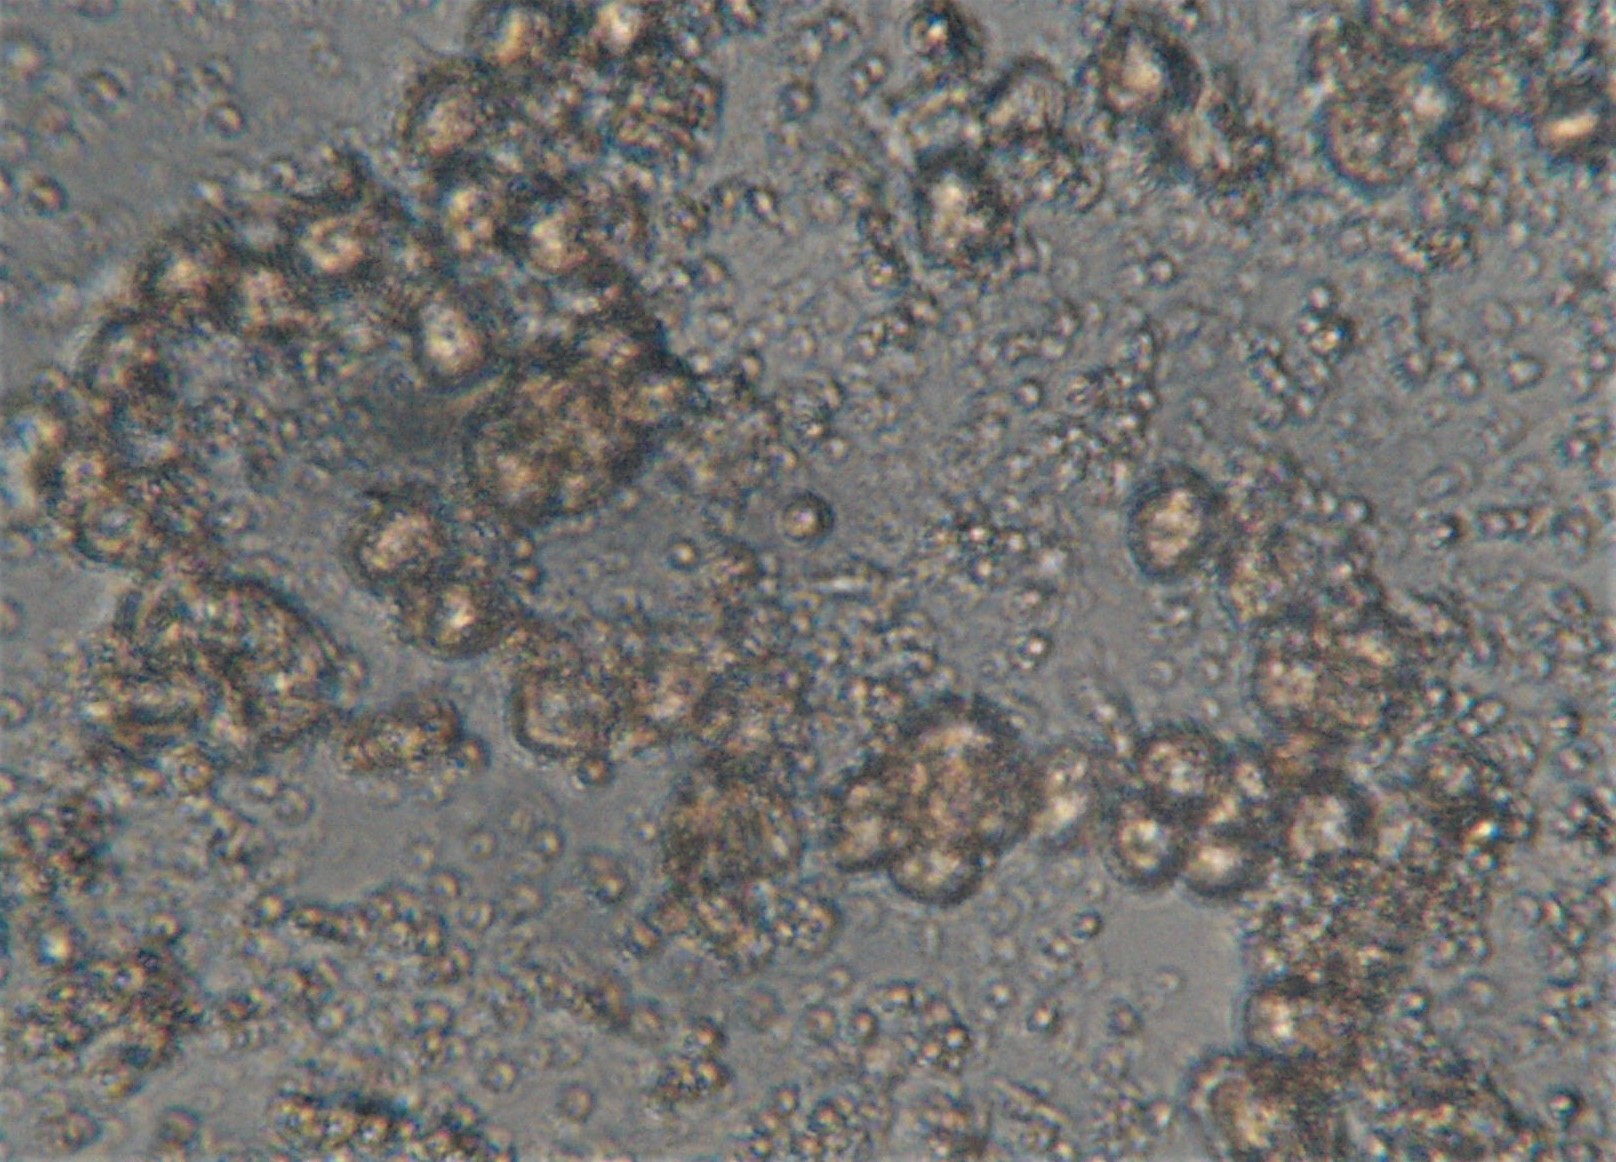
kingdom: Protozoa
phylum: Mycetozoa
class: Myxomycetes
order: Cribrariales
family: Tubiferaceae
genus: Licaethalium
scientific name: Licaethalium olivaceum
